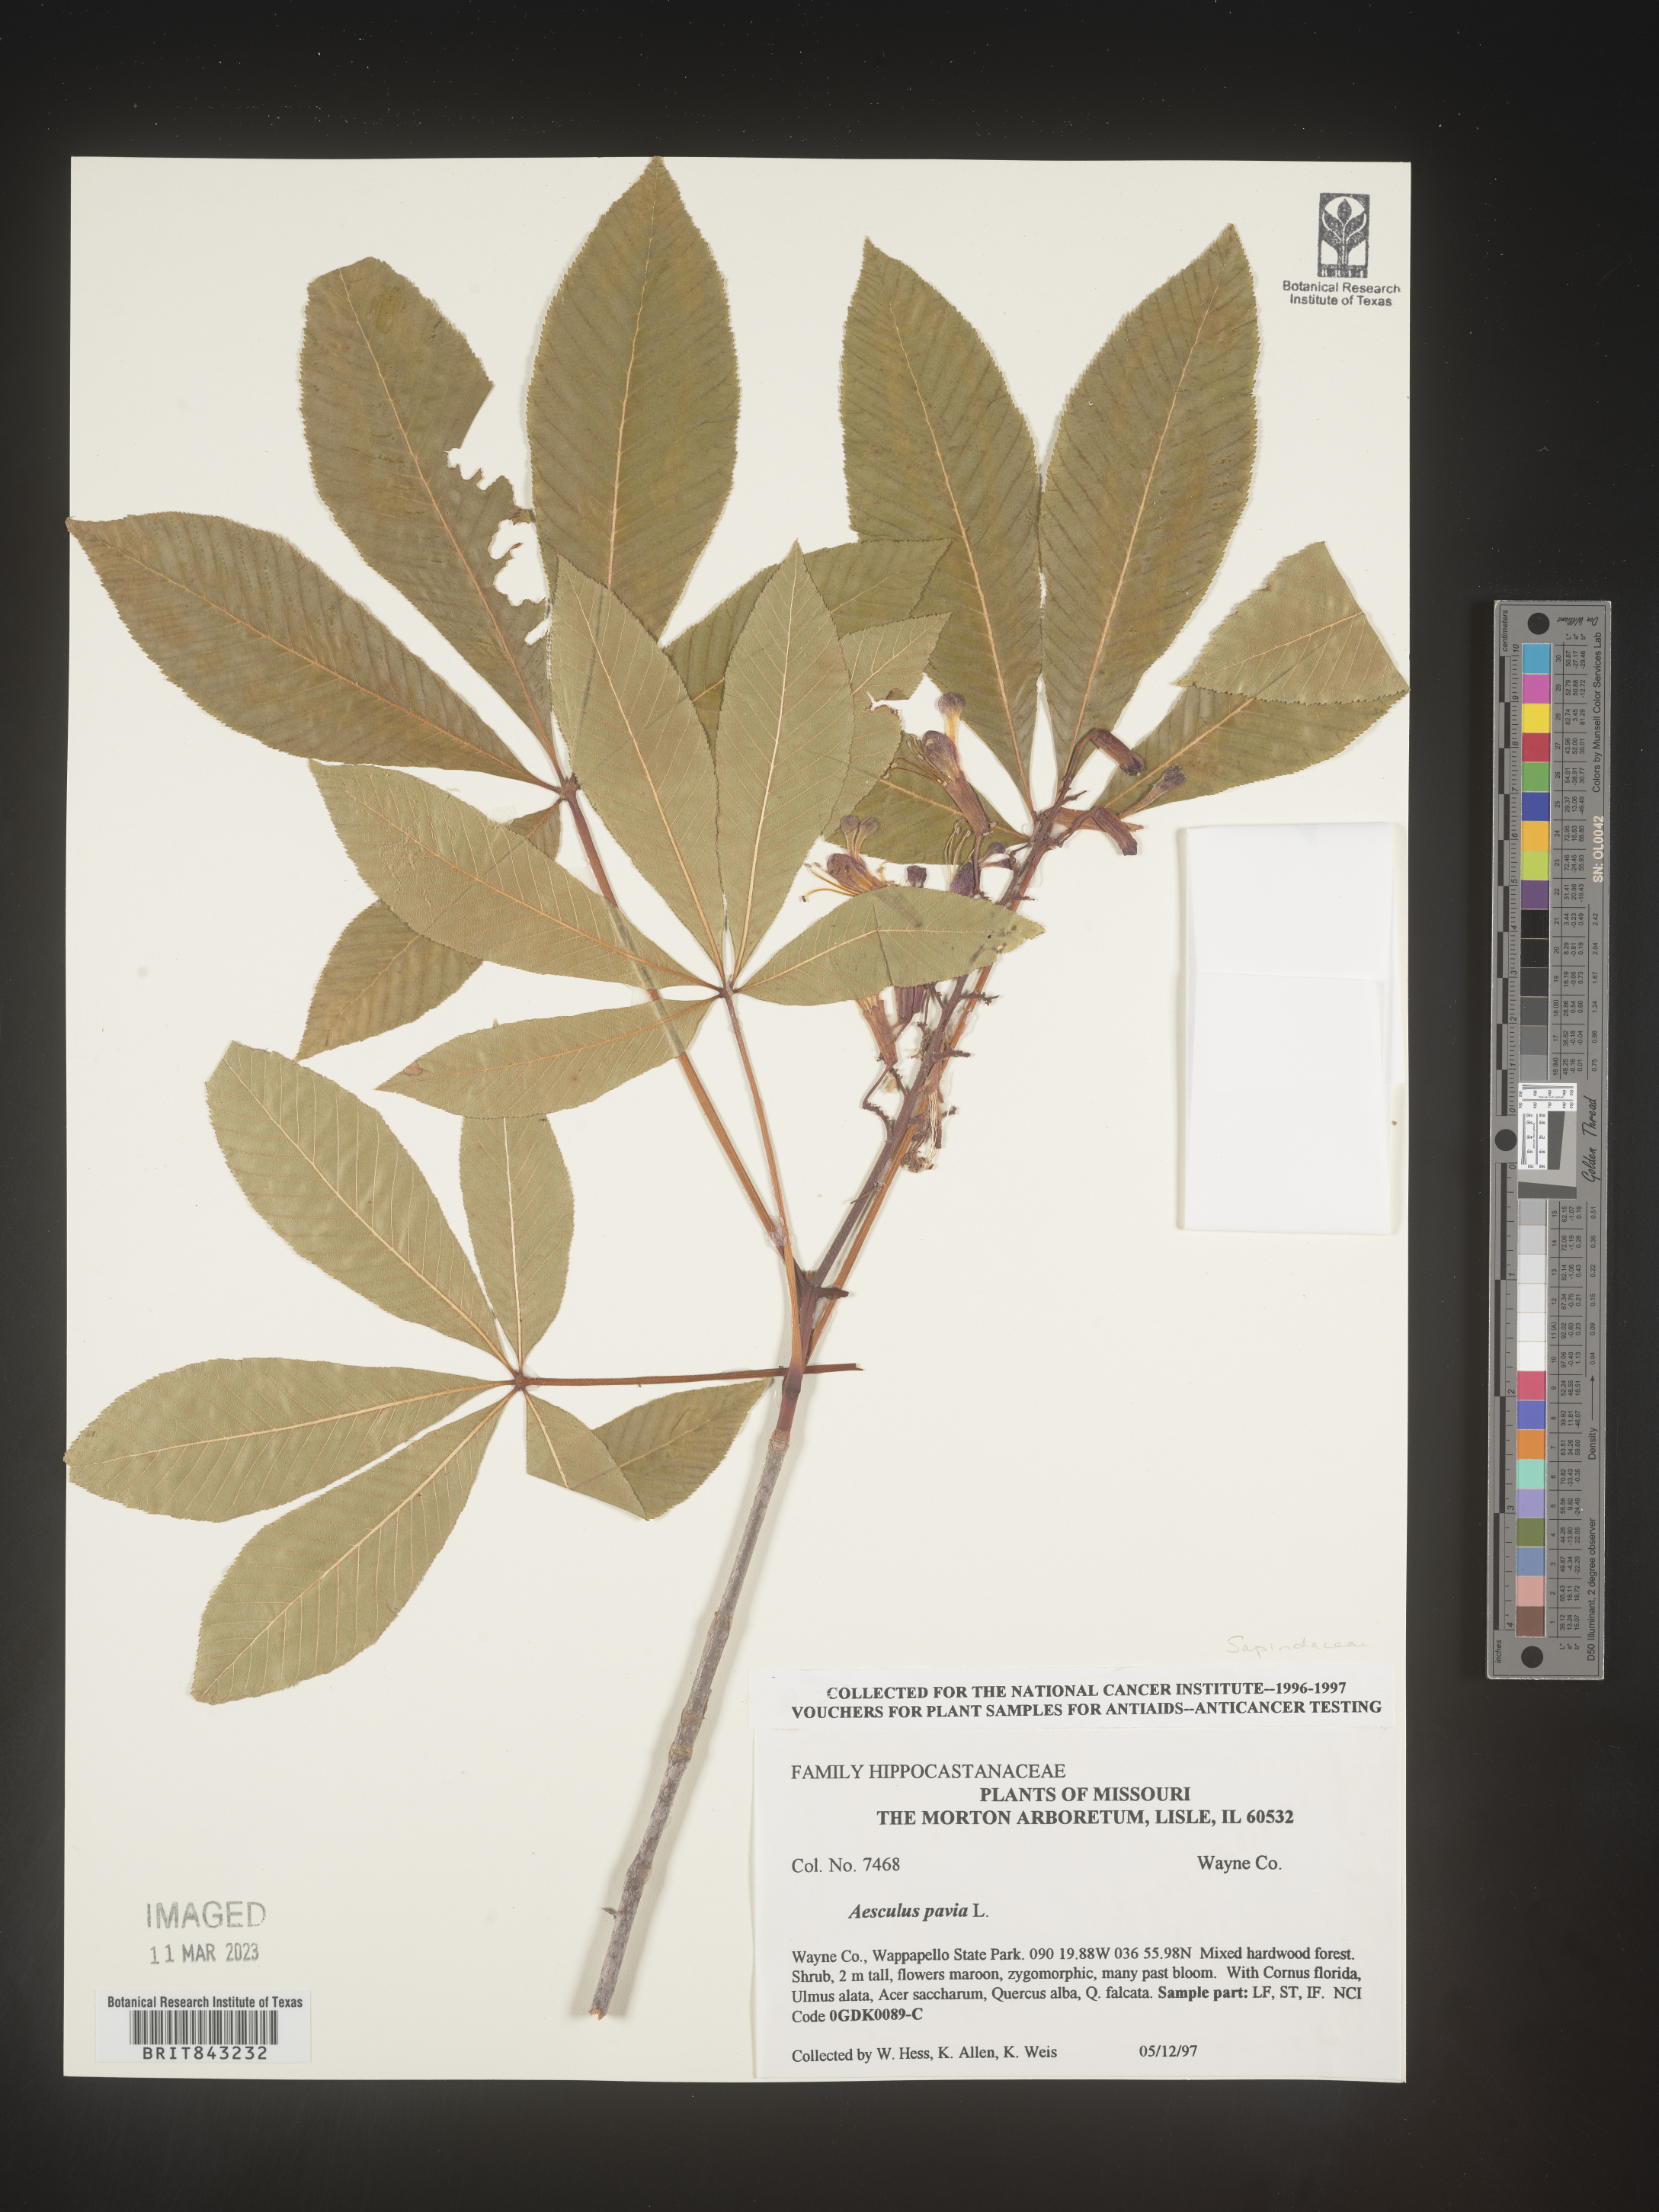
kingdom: Plantae
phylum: Tracheophyta
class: Magnoliopsida
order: Sapindales
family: Sapindaceae
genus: Aesculus
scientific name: Aesculus pavia
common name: Red buckeye
